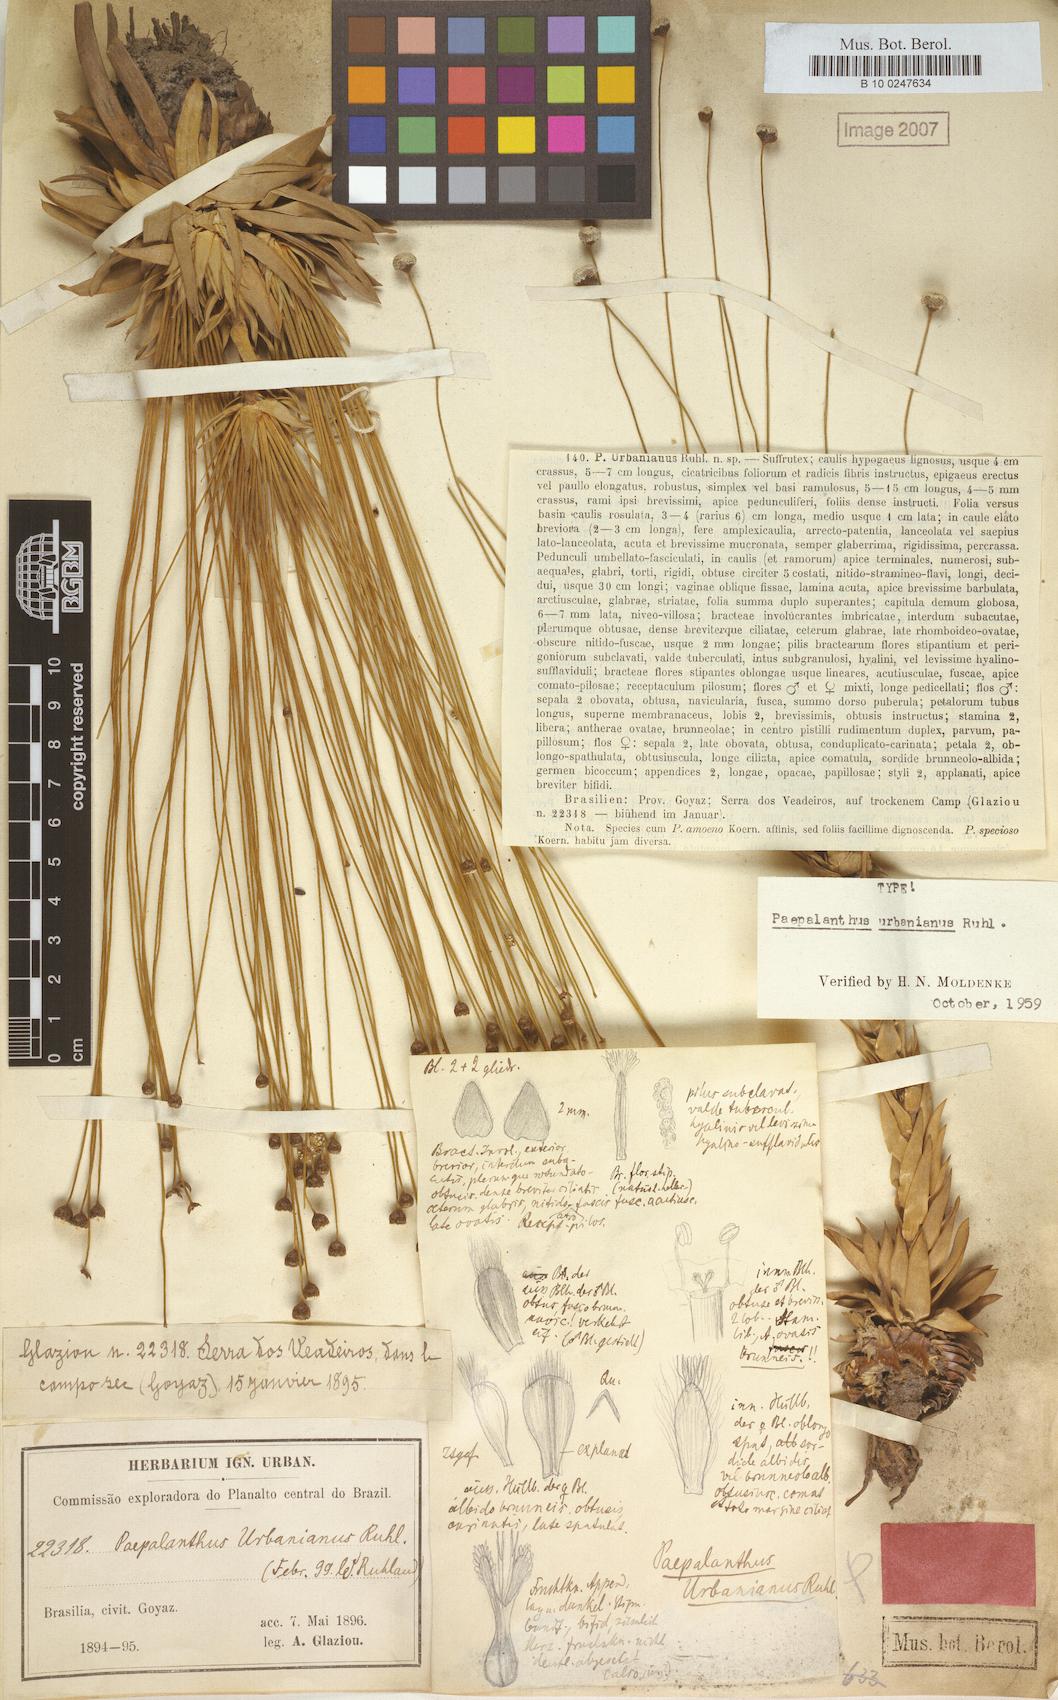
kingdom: Plantae
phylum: Tracheophyta
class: Liliopsida
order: Poales
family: Eriocaulaceae
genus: Paepalanthus
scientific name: Paepalanthus urbanianus
